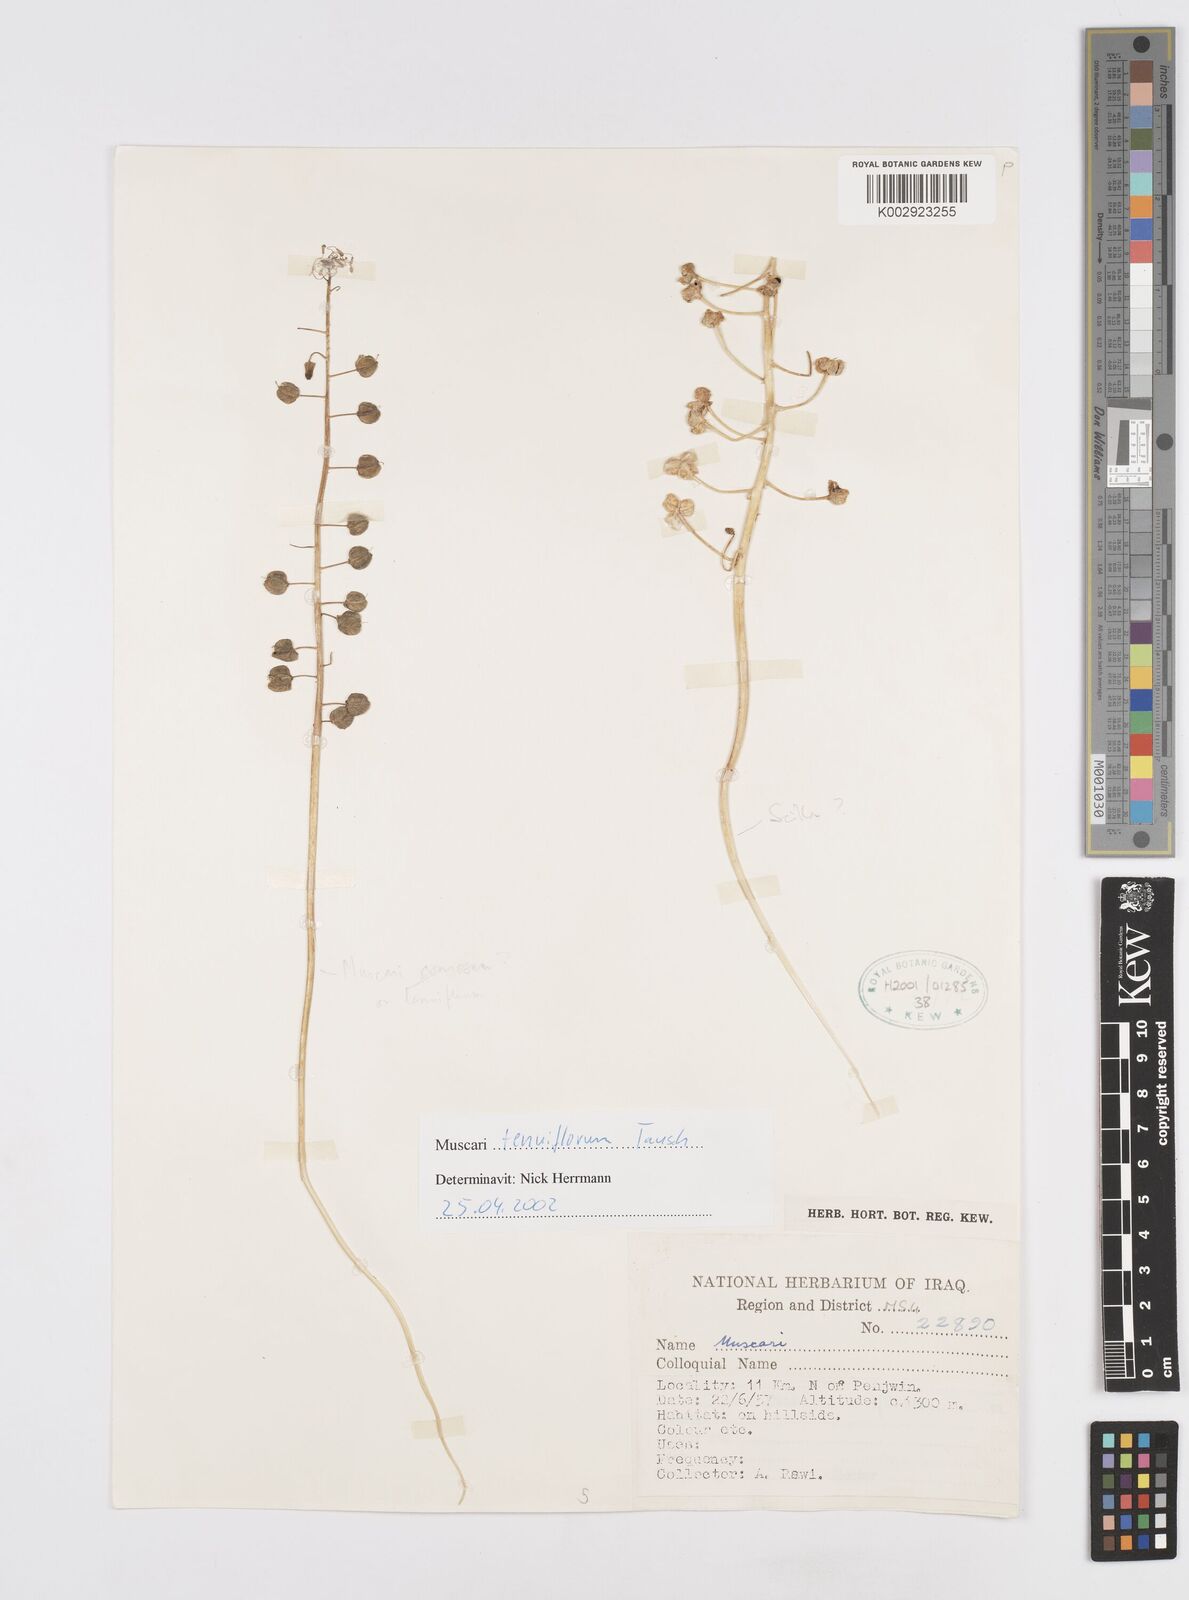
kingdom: Plantae
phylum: Tracheophyta
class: Liliopsida
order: Asparagales
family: Asparagaceae
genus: Muscari
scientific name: Muscari tenuiflorum
